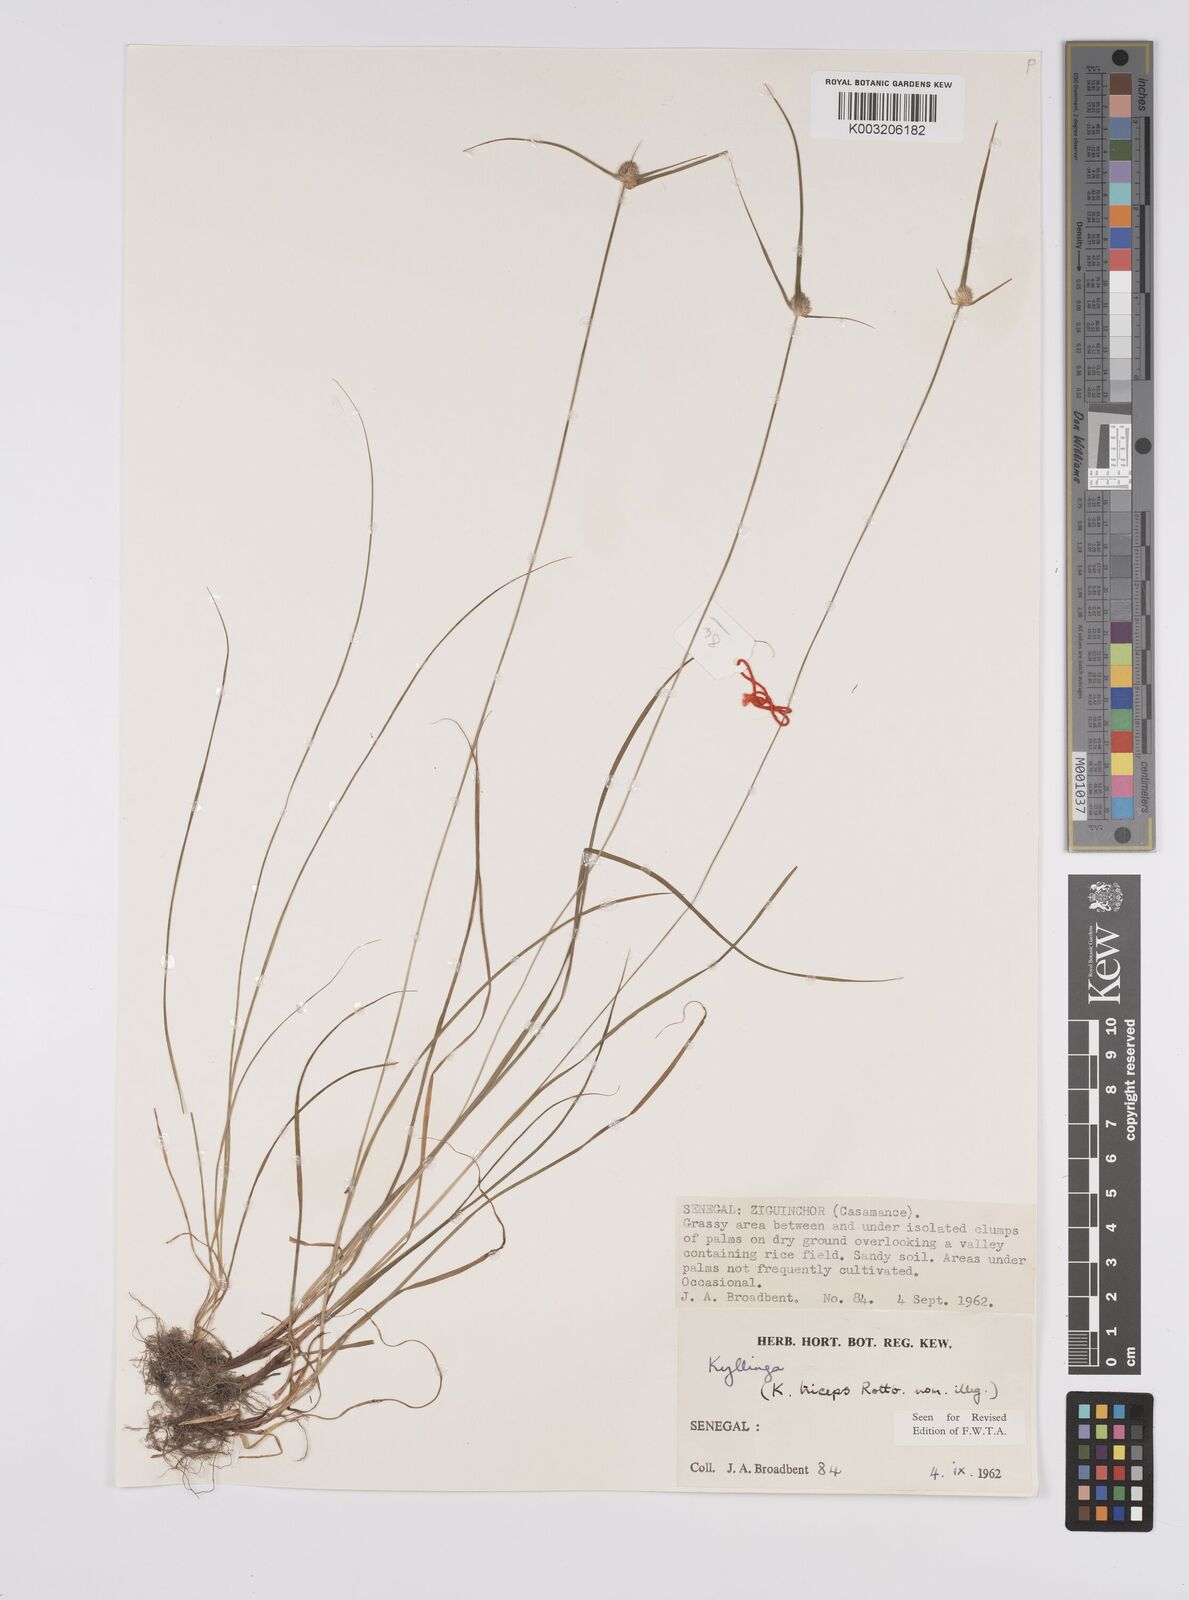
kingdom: Plantae
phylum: Tracheophyta
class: Liliopsida
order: Poales
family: Cyperaceae
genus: Cyperus
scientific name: Cyperus
